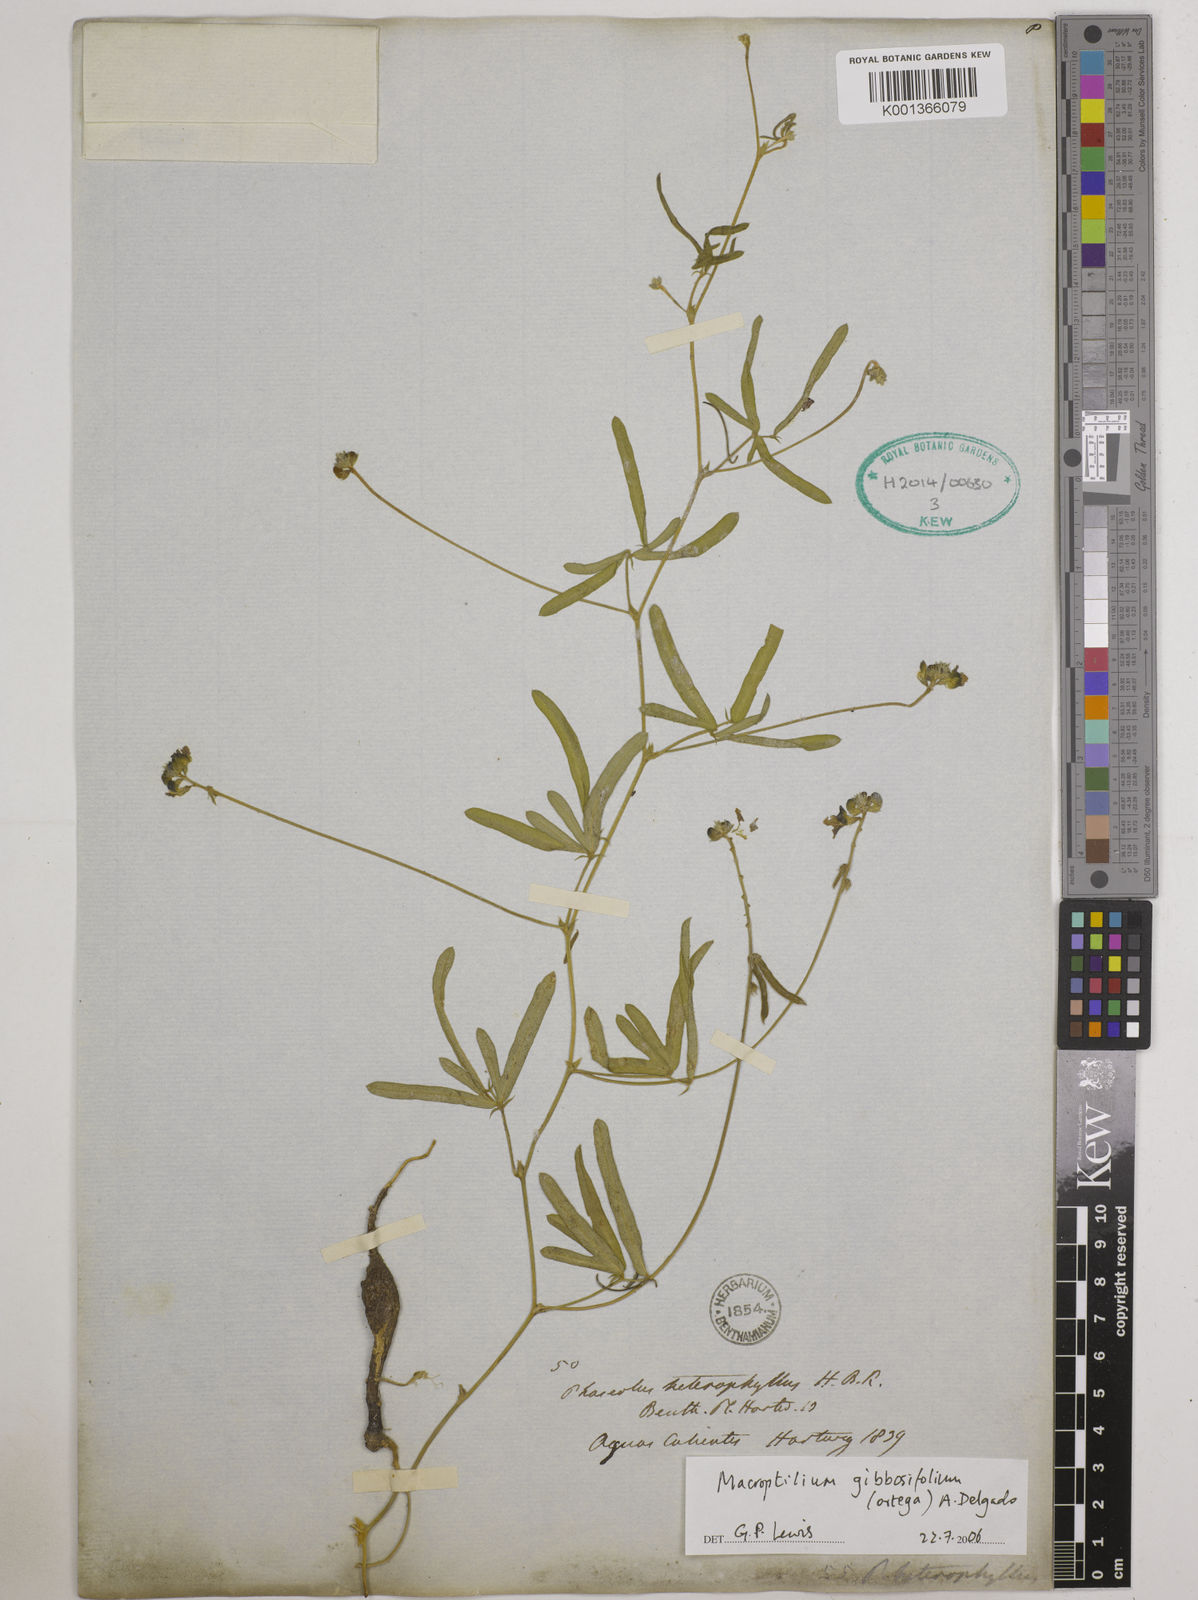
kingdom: Plantae
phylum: Tracheophyta
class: Magnoliopsida
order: Fabales
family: Fabaceae
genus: Macroptilium
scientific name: Macroptilium gibbosifolium
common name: Variableleaf bushbean
